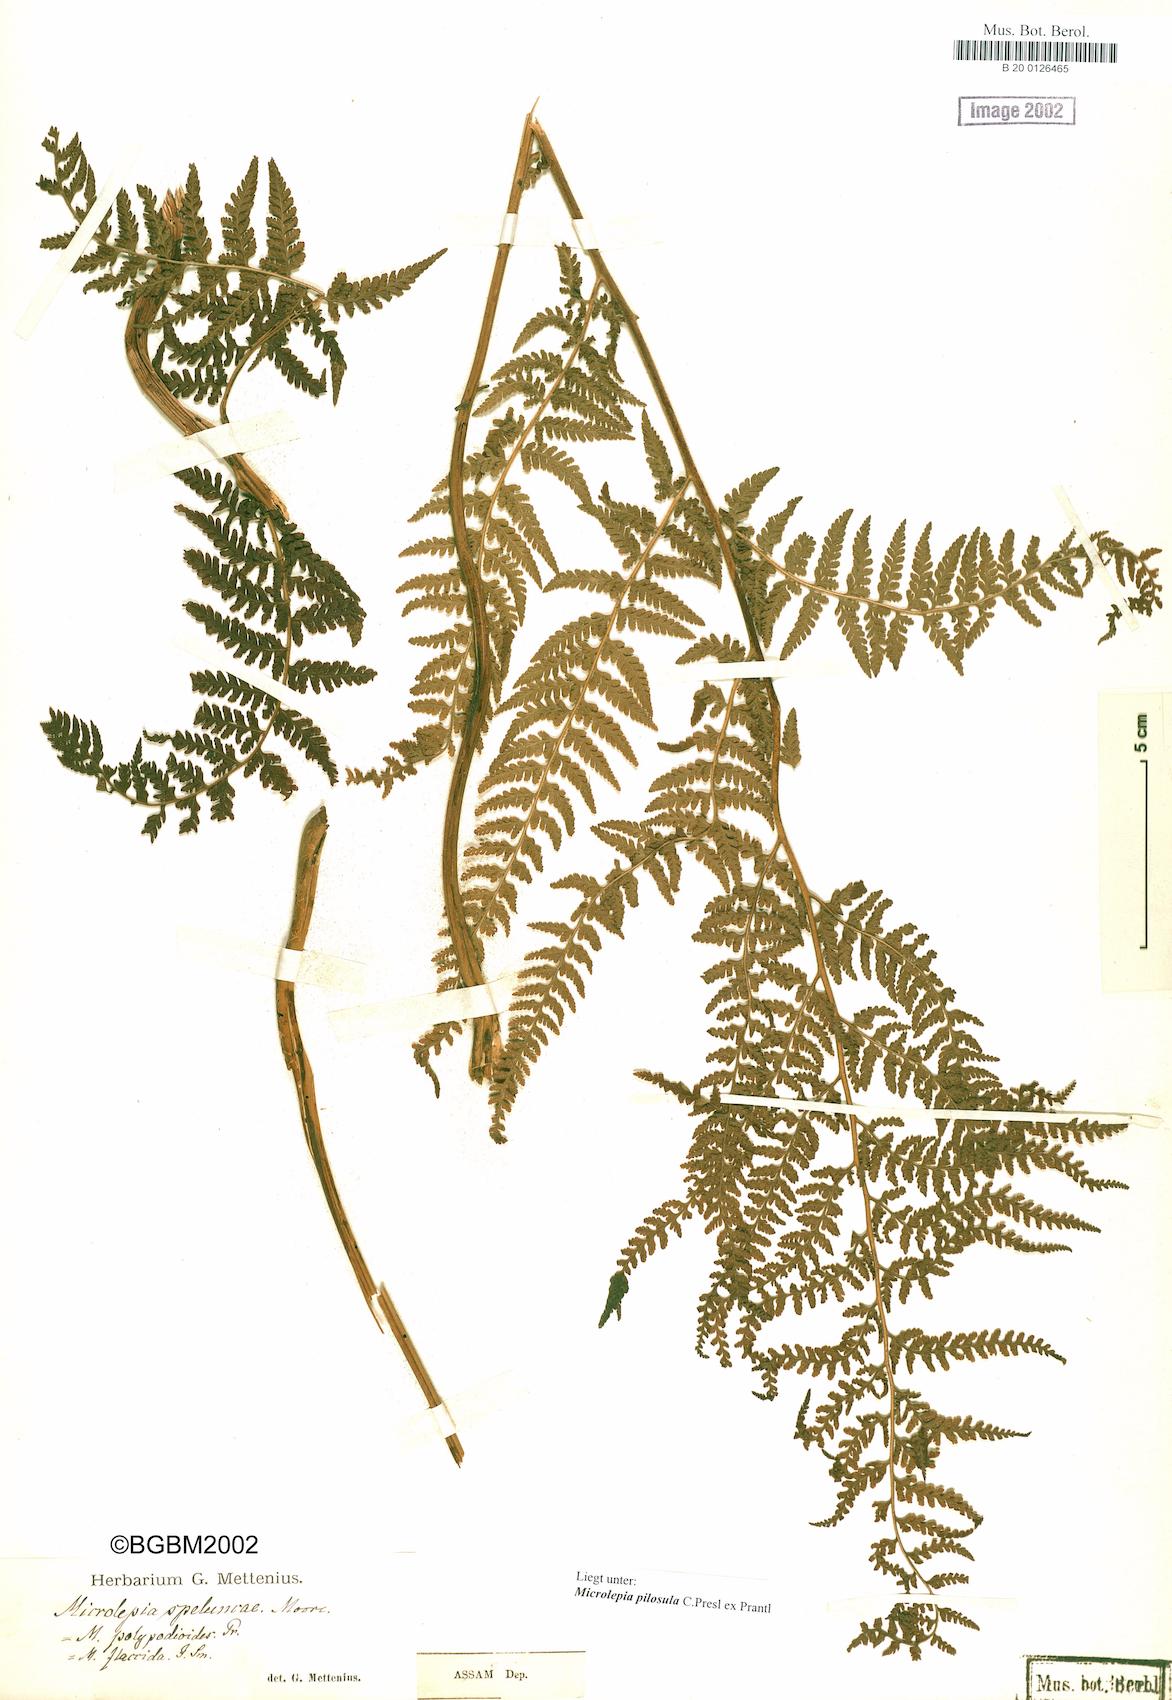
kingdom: Plantae
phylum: Tracheophyta
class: Polypodiopsida
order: Polypodiales
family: Dennstaedtiaceae
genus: Microlepia
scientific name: Microlepia speluncae
